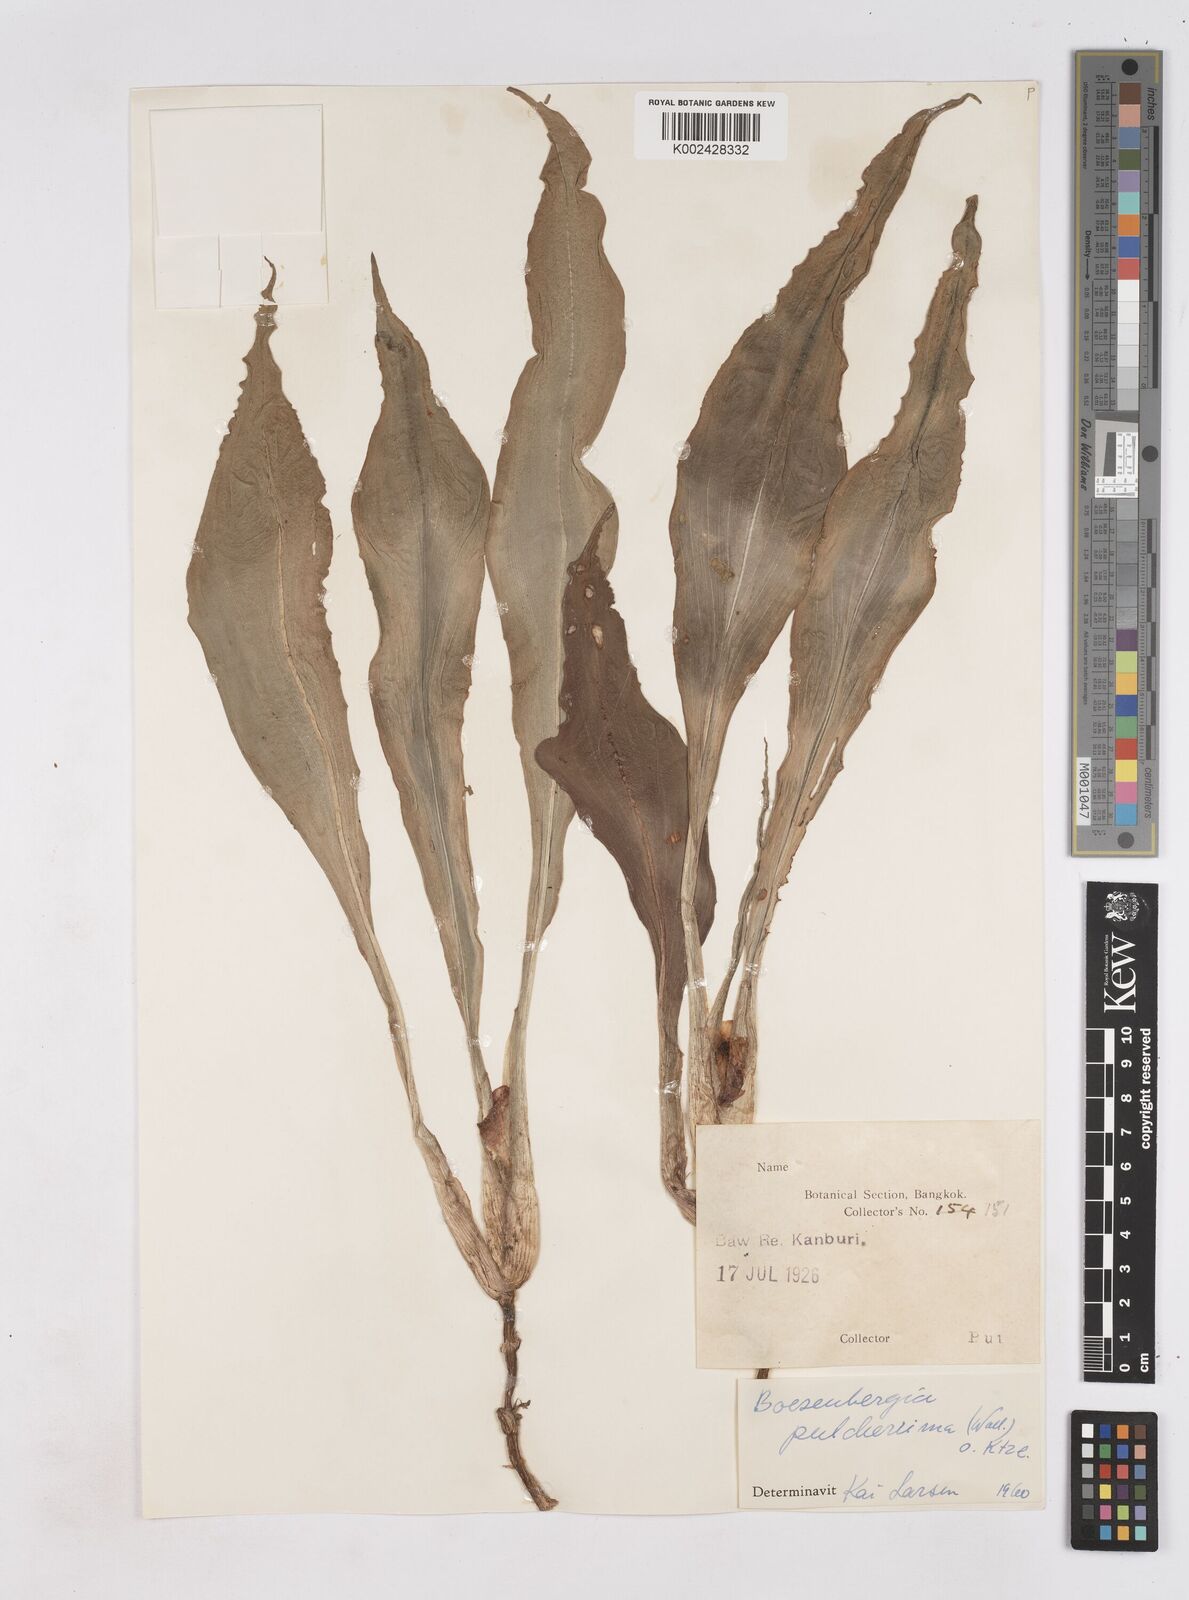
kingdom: Plantae
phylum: Tracheophyta
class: Liliopsida
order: Zingiberales
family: Zingiberaceae
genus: Boesenbergia
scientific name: Boesenbergia pulcherrima
